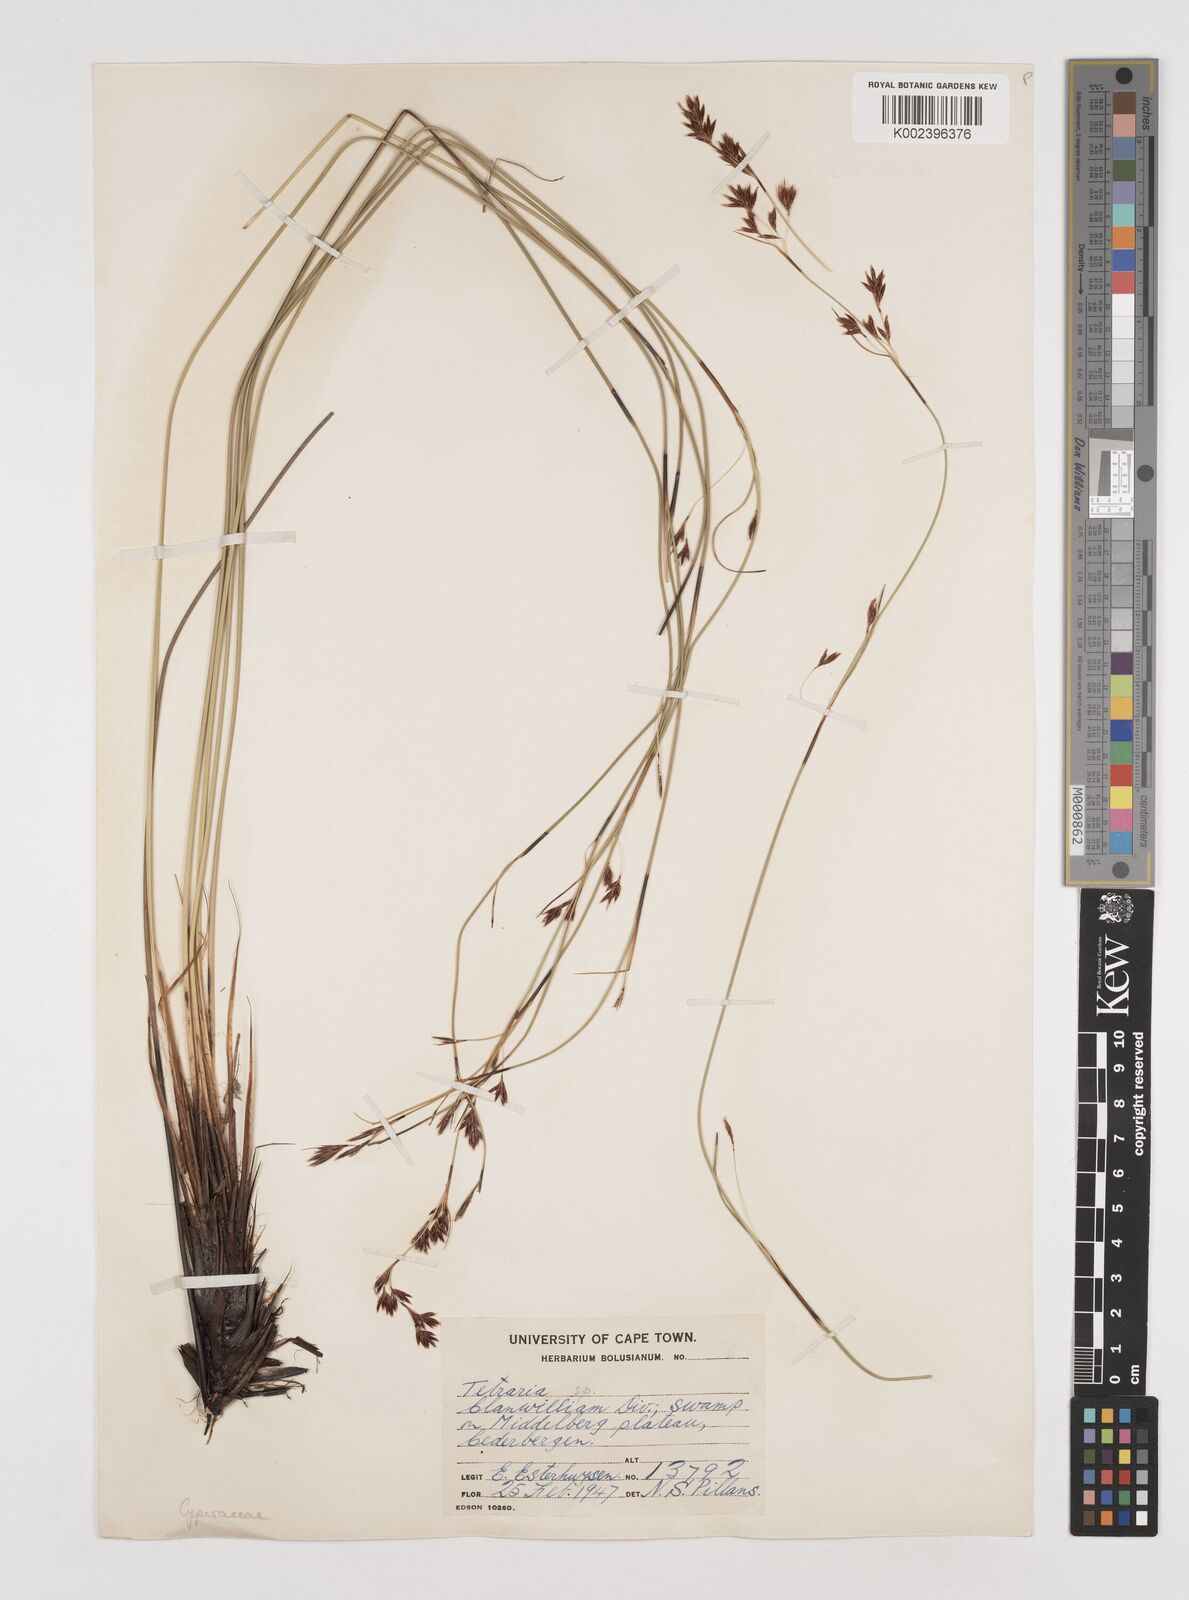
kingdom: Plantae
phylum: Tracheophyta
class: Liliopsida
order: Poales
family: Cyperaceae
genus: Tetraria
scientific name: Tetraria
